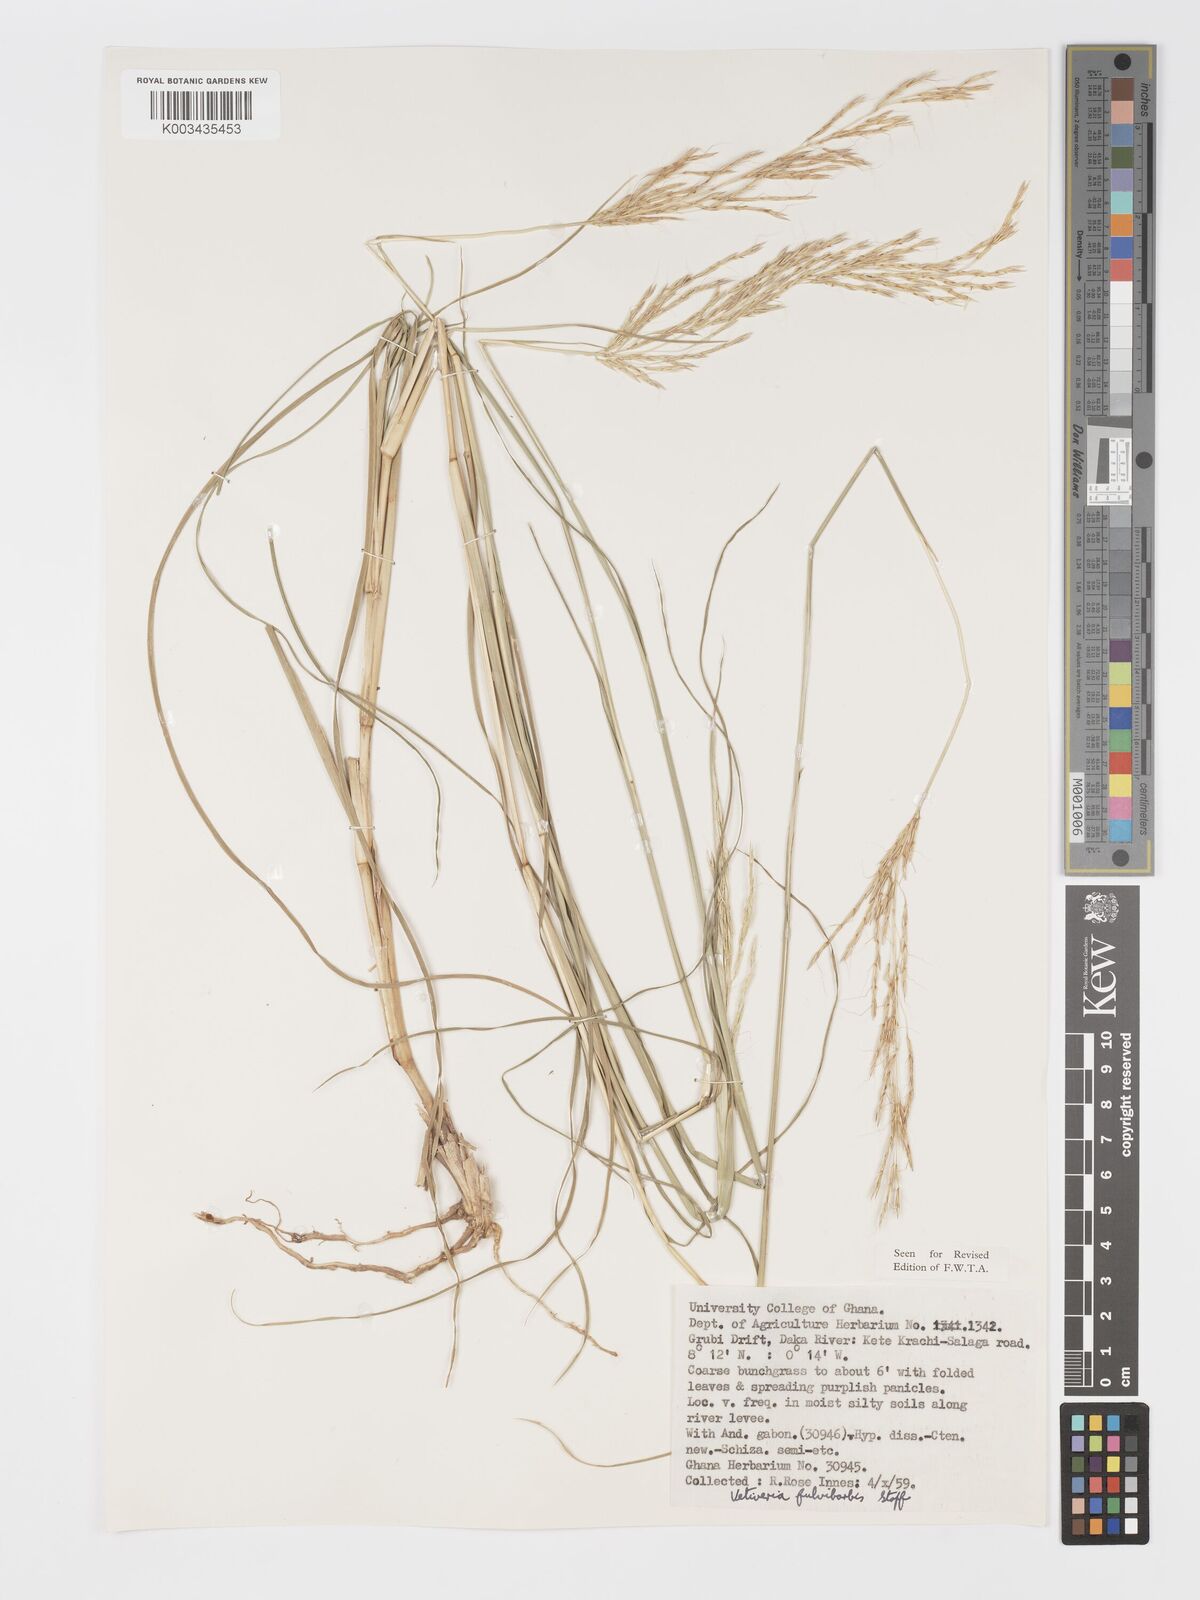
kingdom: Plantae
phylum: Tracheophyta
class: Liliopsida
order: Poales
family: Poaceae
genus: Chrysopogon
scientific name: Chrysopogon fulvibarbis
